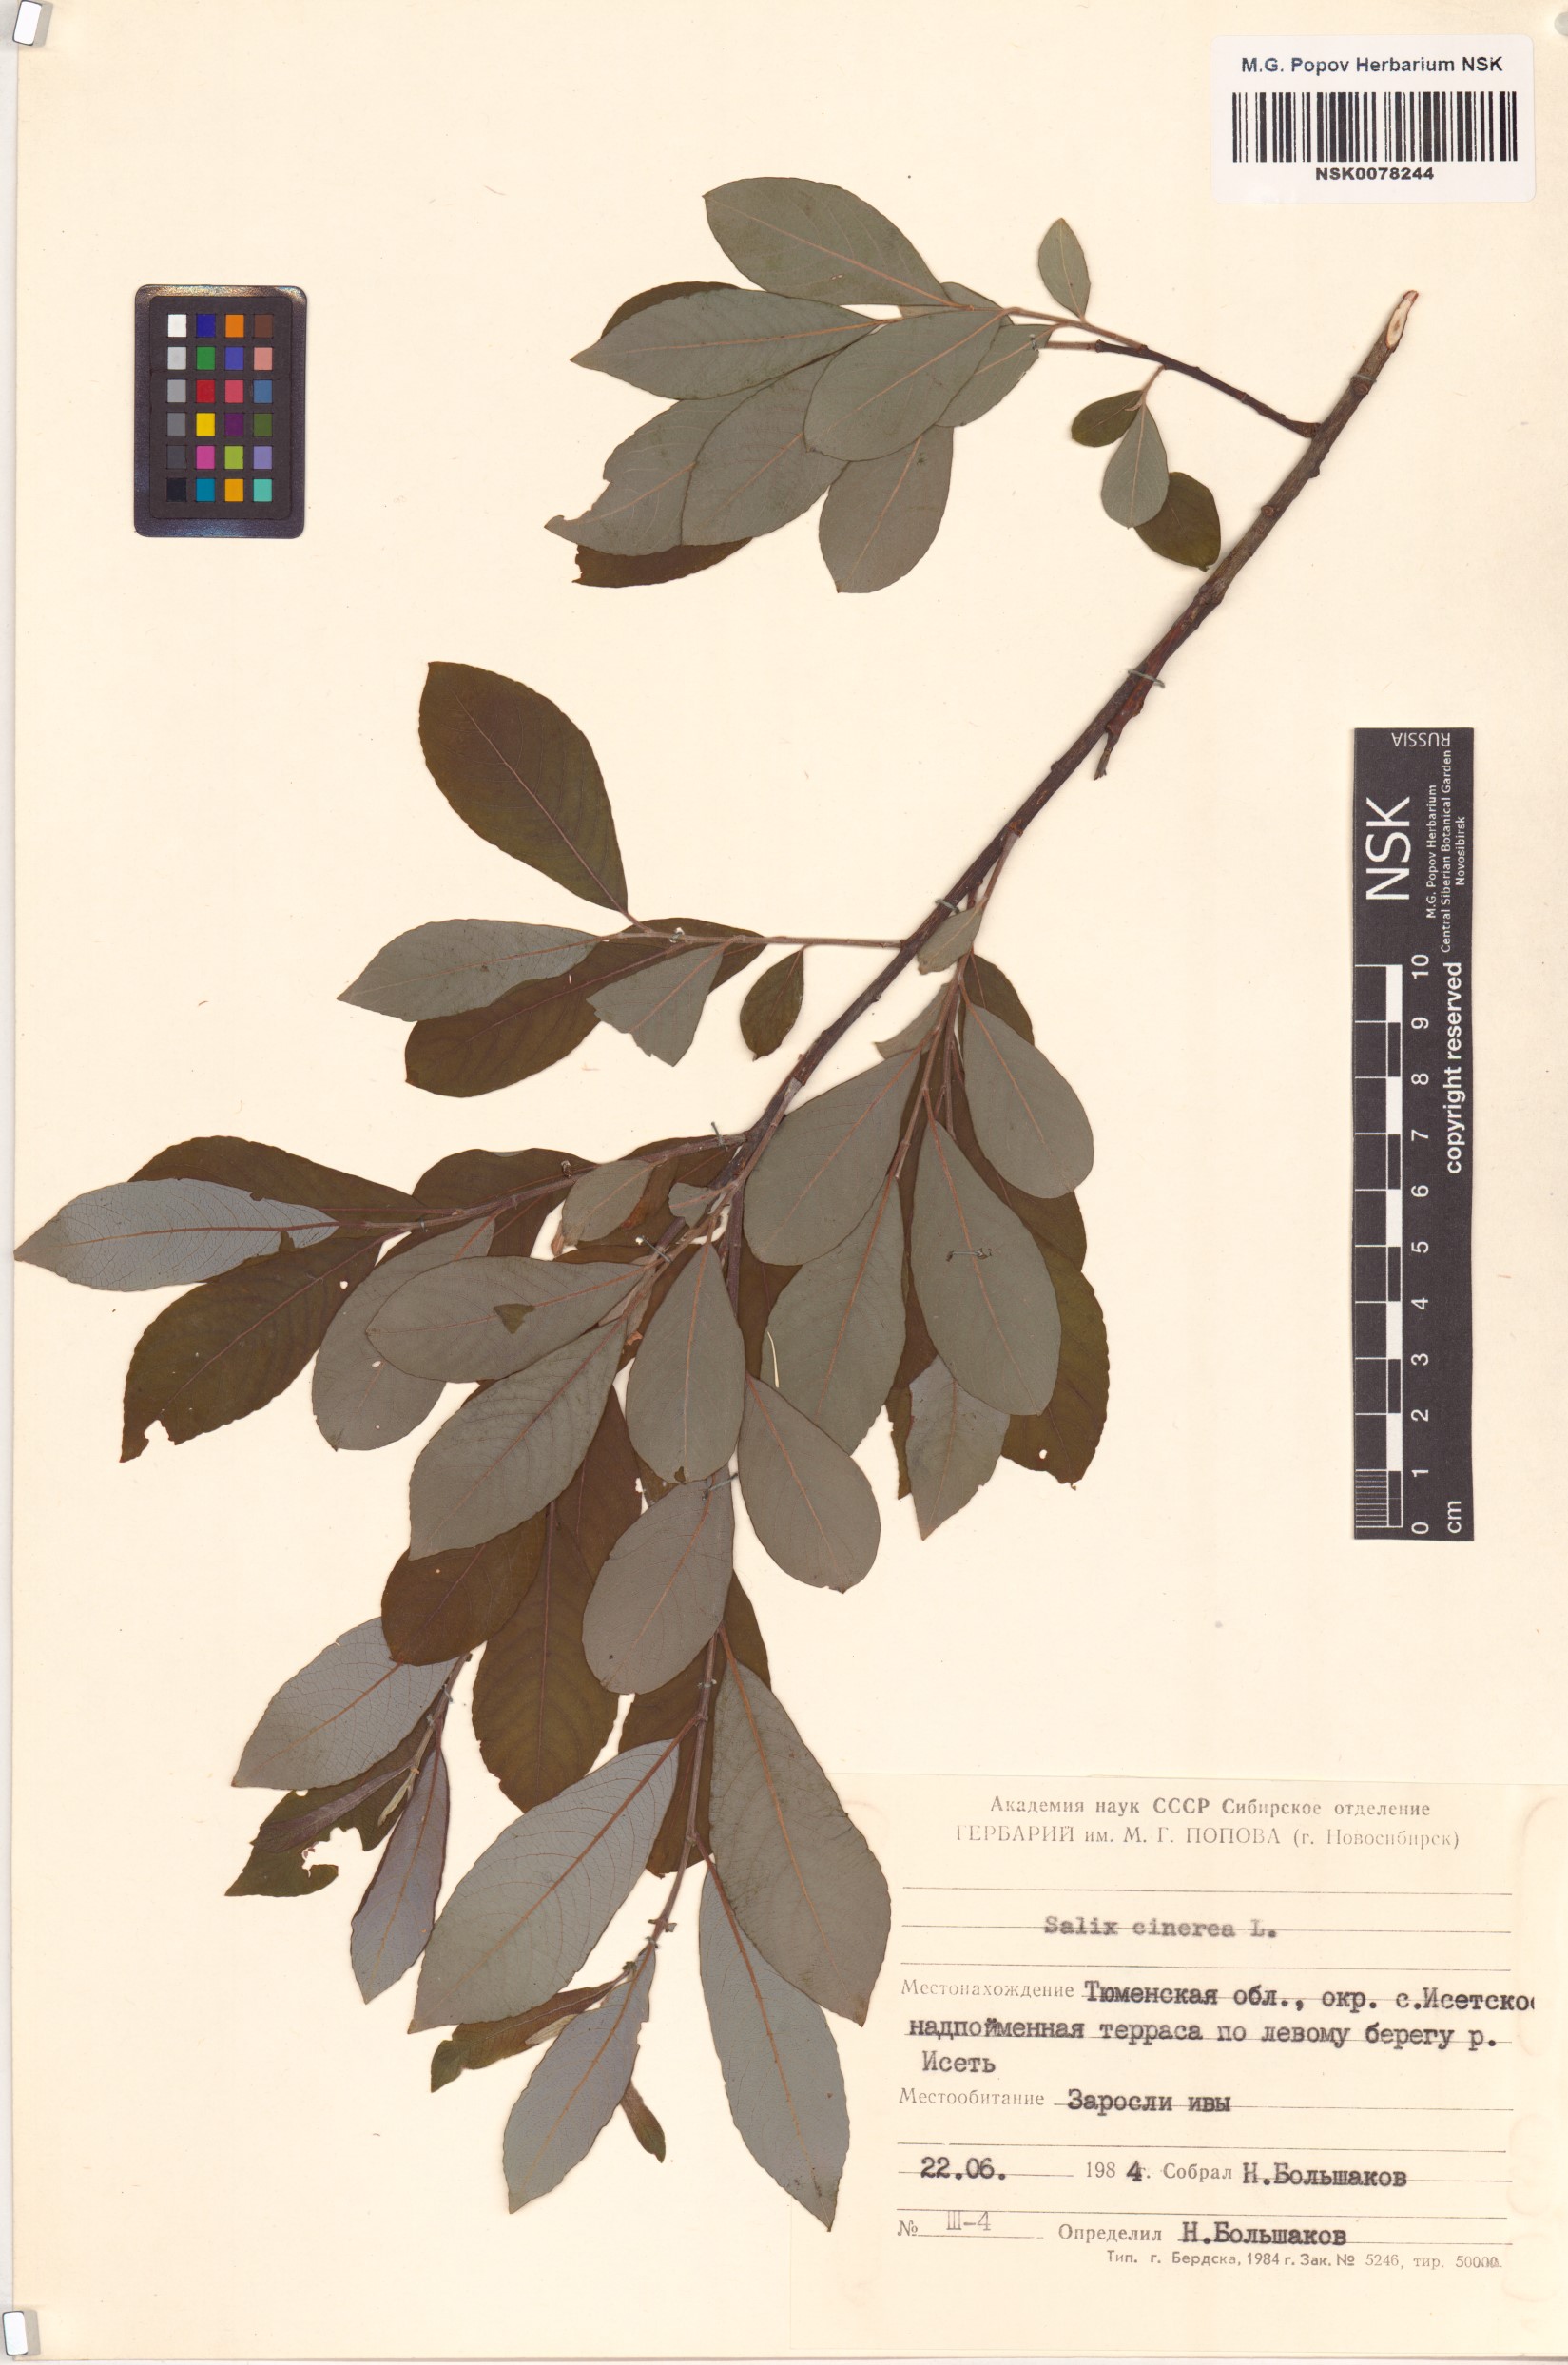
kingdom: Plantae
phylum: Tracheophyta
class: Magnoliopsida
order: Malpighiales
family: Salicaceae
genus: Salix
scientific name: Salix cinerea
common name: Common sallow
